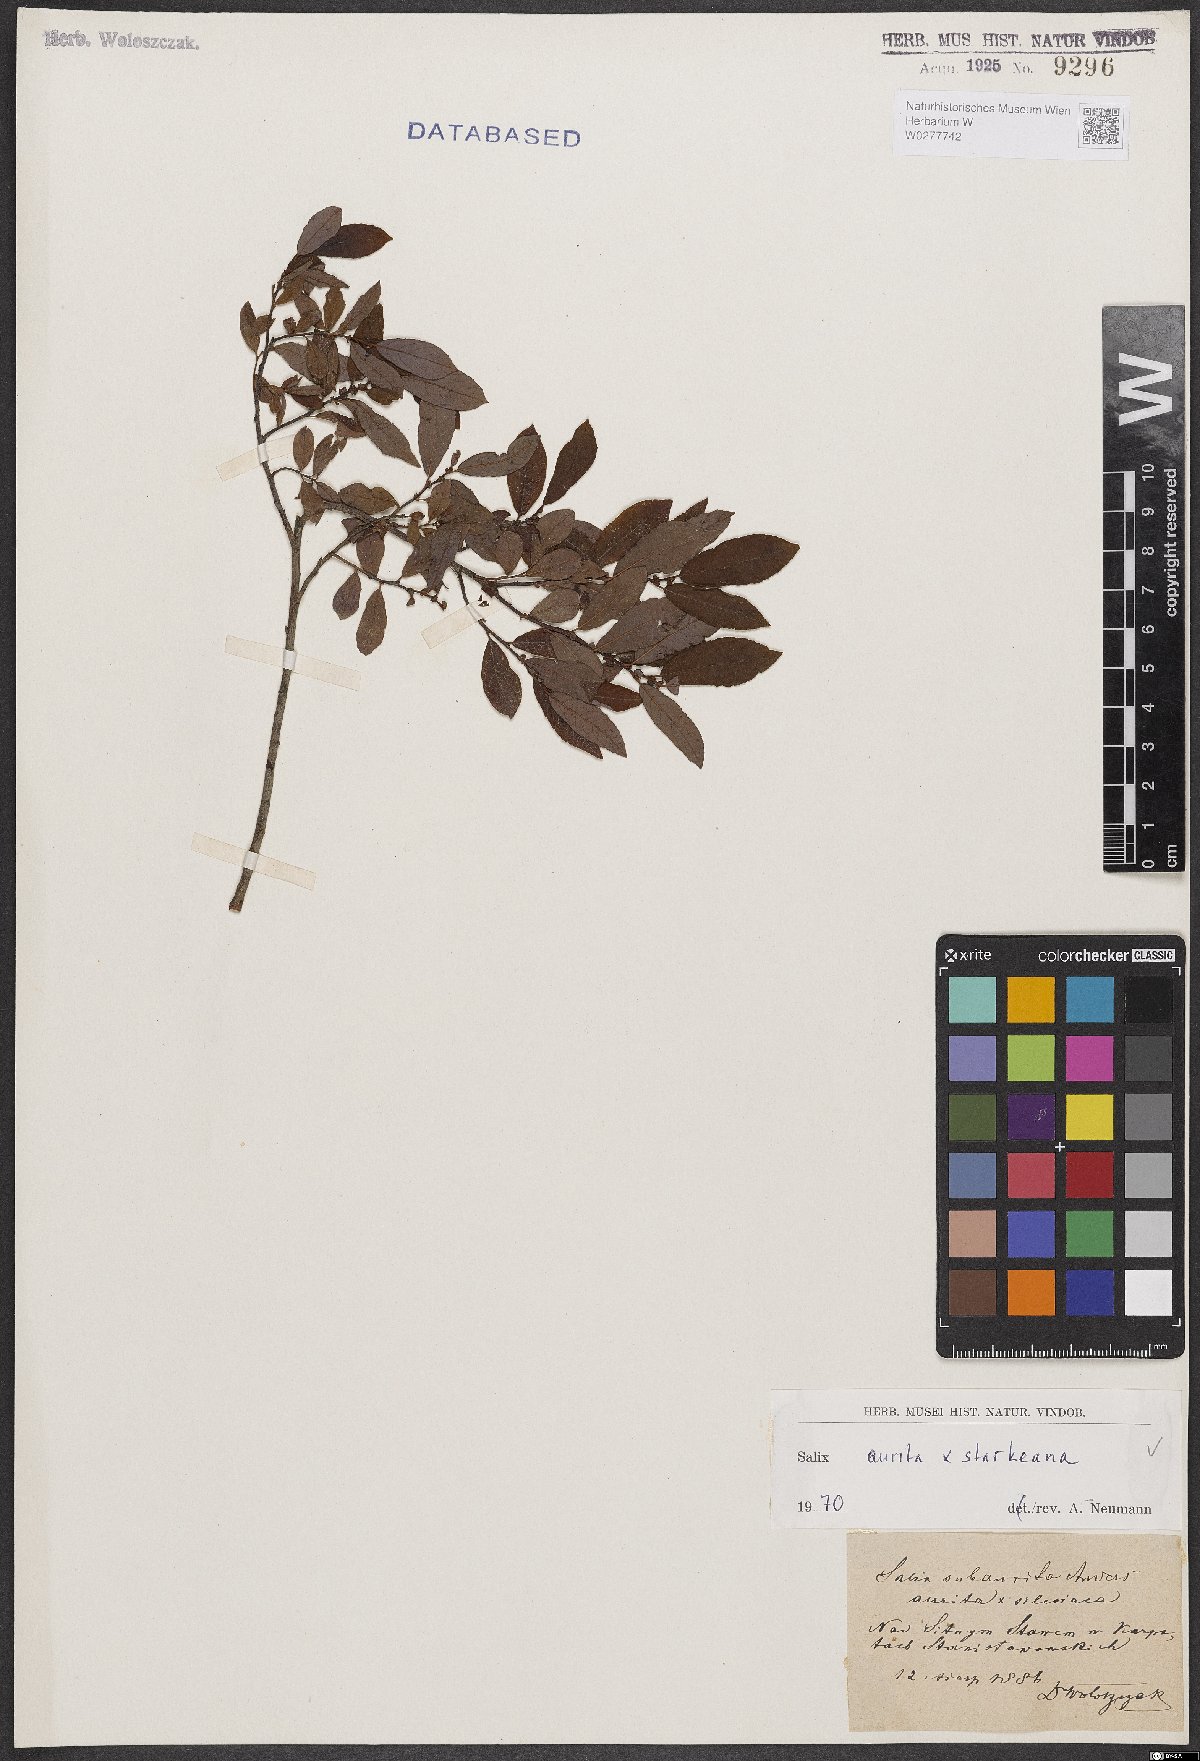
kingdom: Plantae
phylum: Tracheophyta
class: Magnoliopsida
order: Malpighiales
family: Salicaceae
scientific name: Salicaceae
